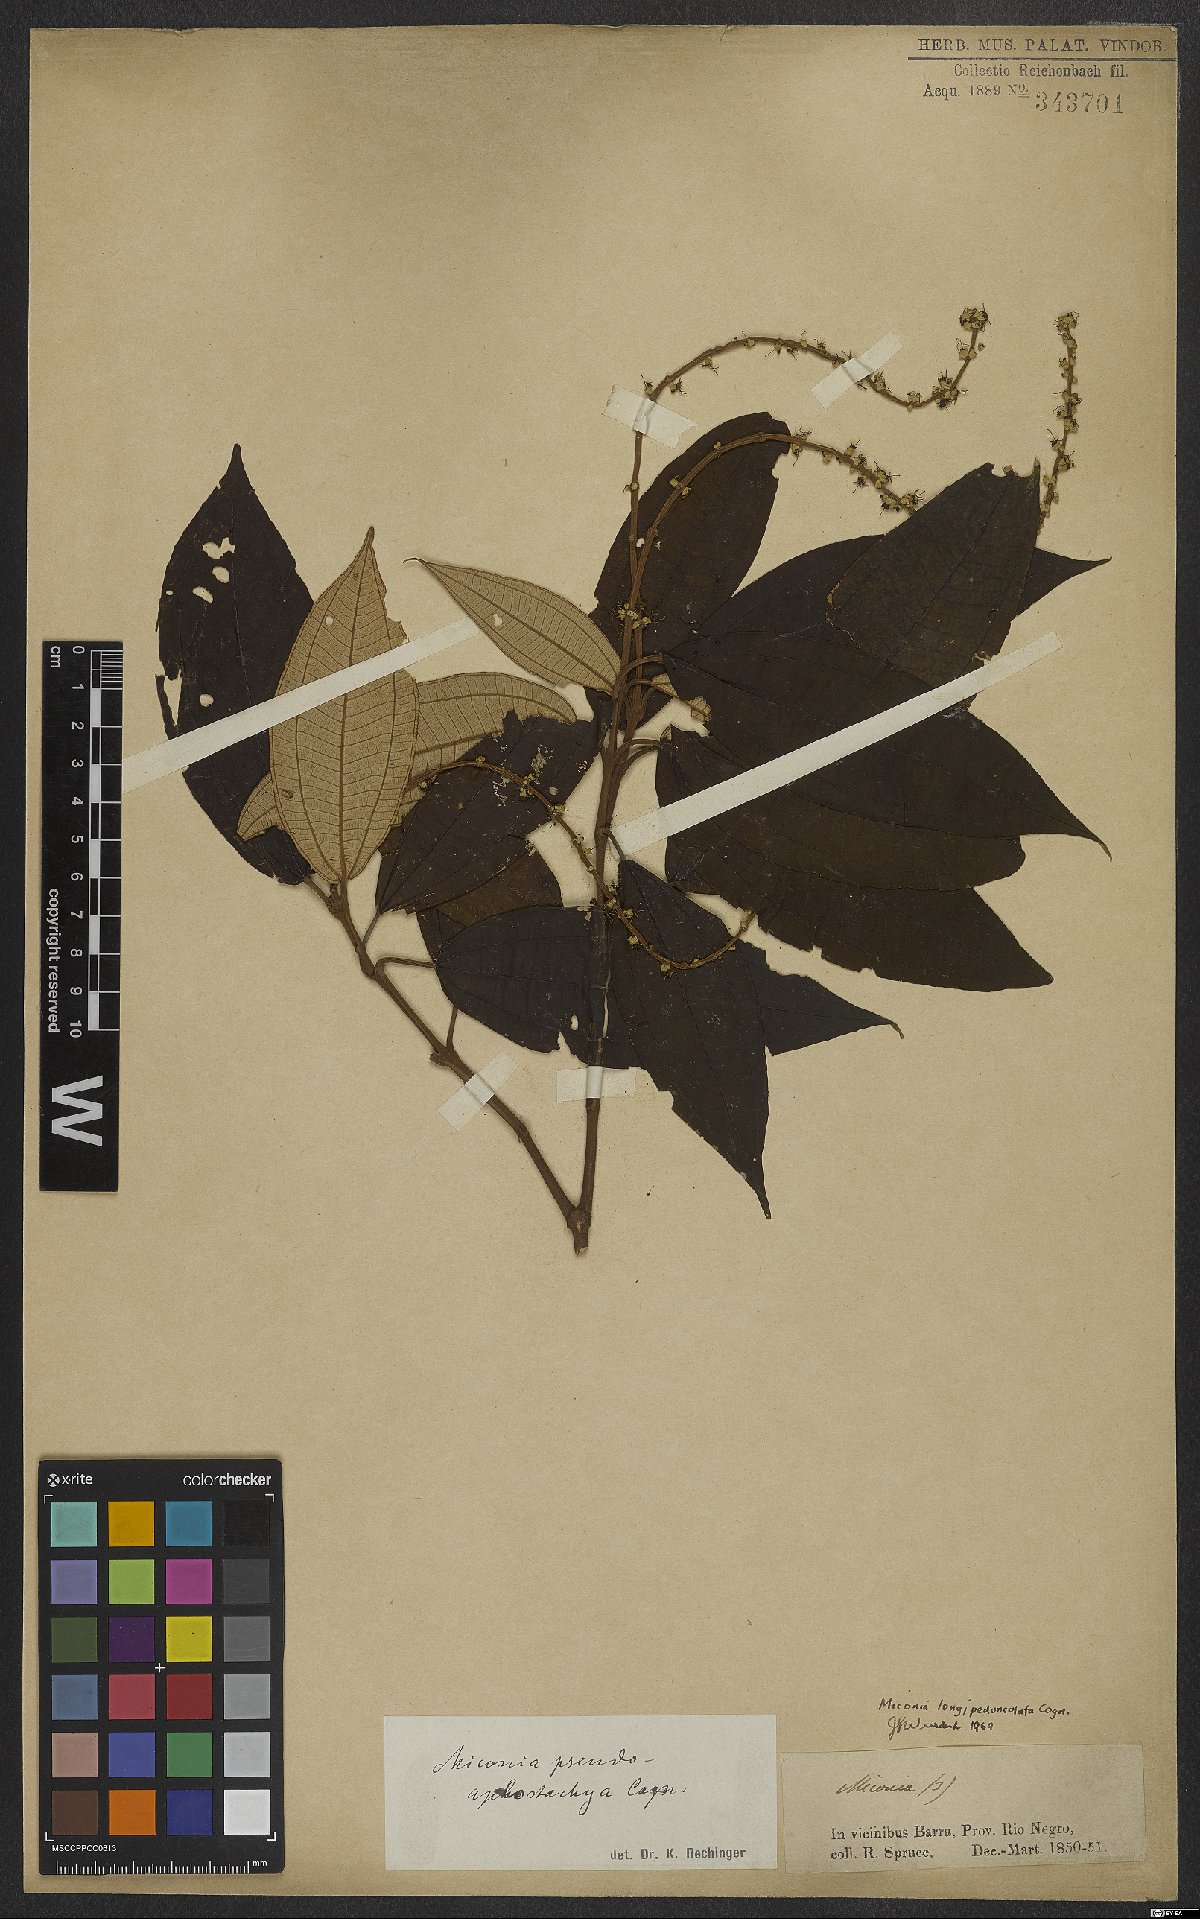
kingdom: Plantae
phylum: Tracheophyta
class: Magnoliopsida
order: Myrtales
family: Melastomataceae
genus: Miconia
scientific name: Miconia longispicata
